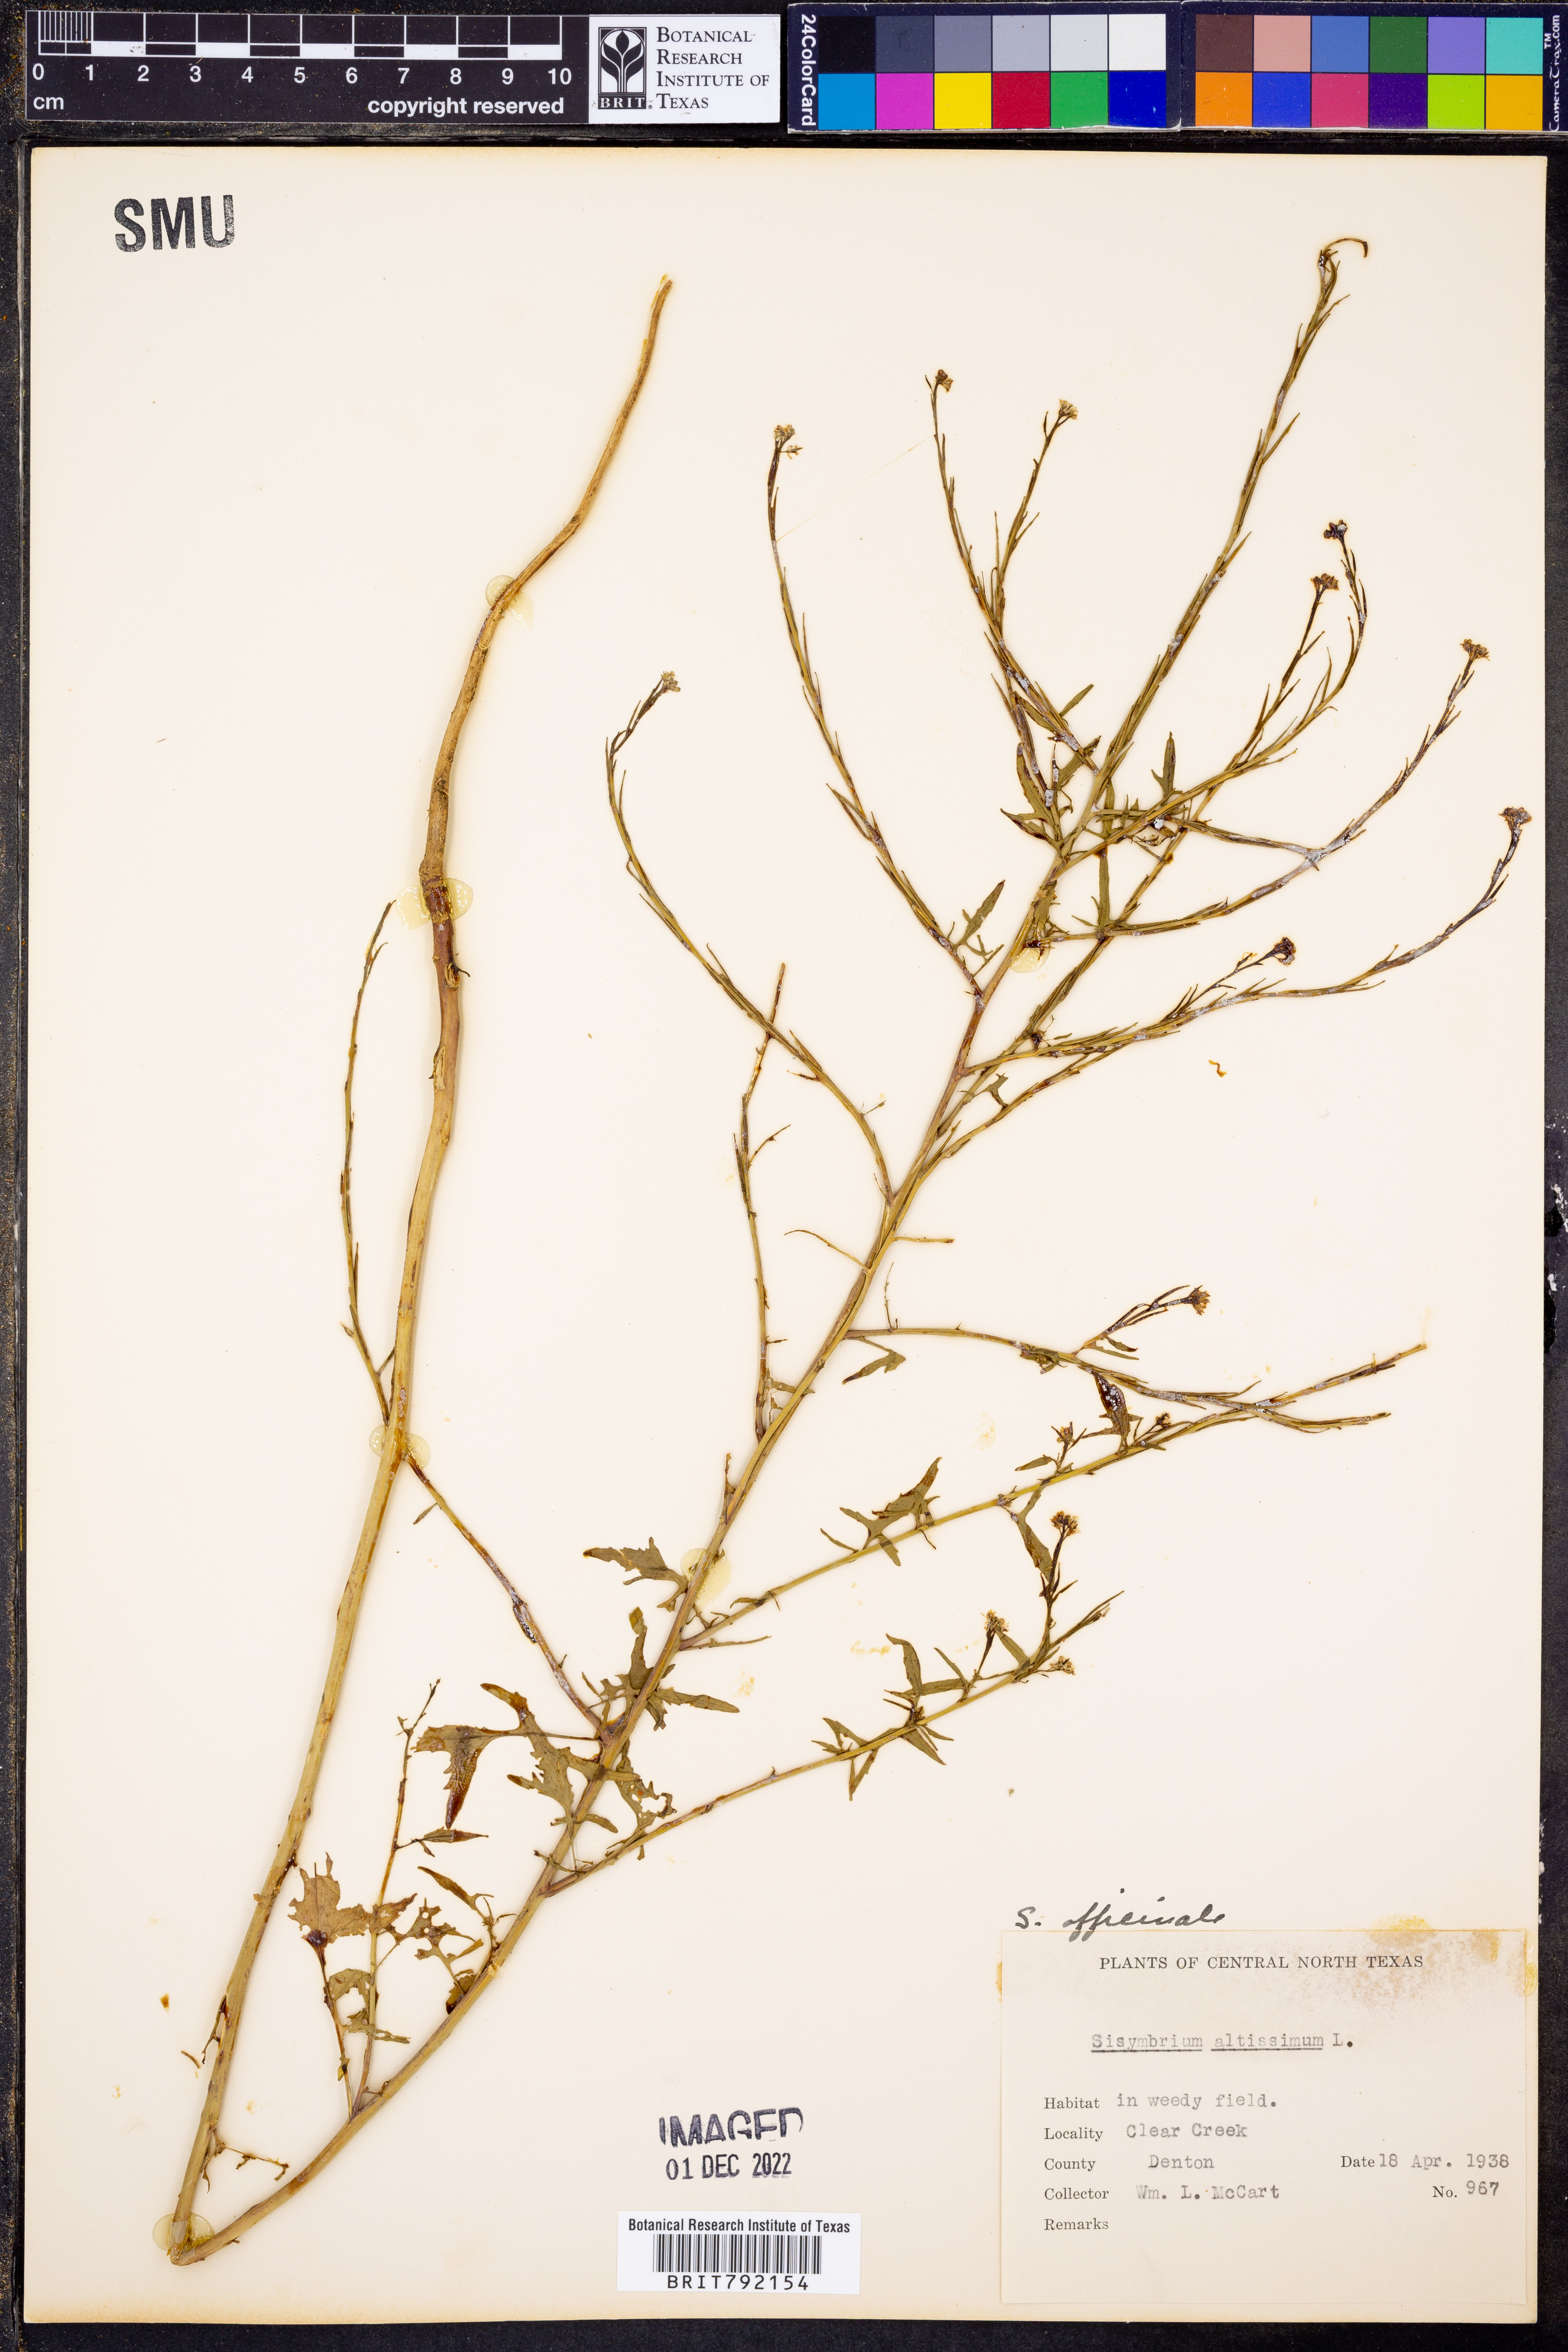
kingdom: Plantae
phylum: Tracheophyta
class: Magnoliopsida
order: Brassicales
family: Brassicaceae
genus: Sisymbrium
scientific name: Sisymbrium officinale
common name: Hedge mustard
